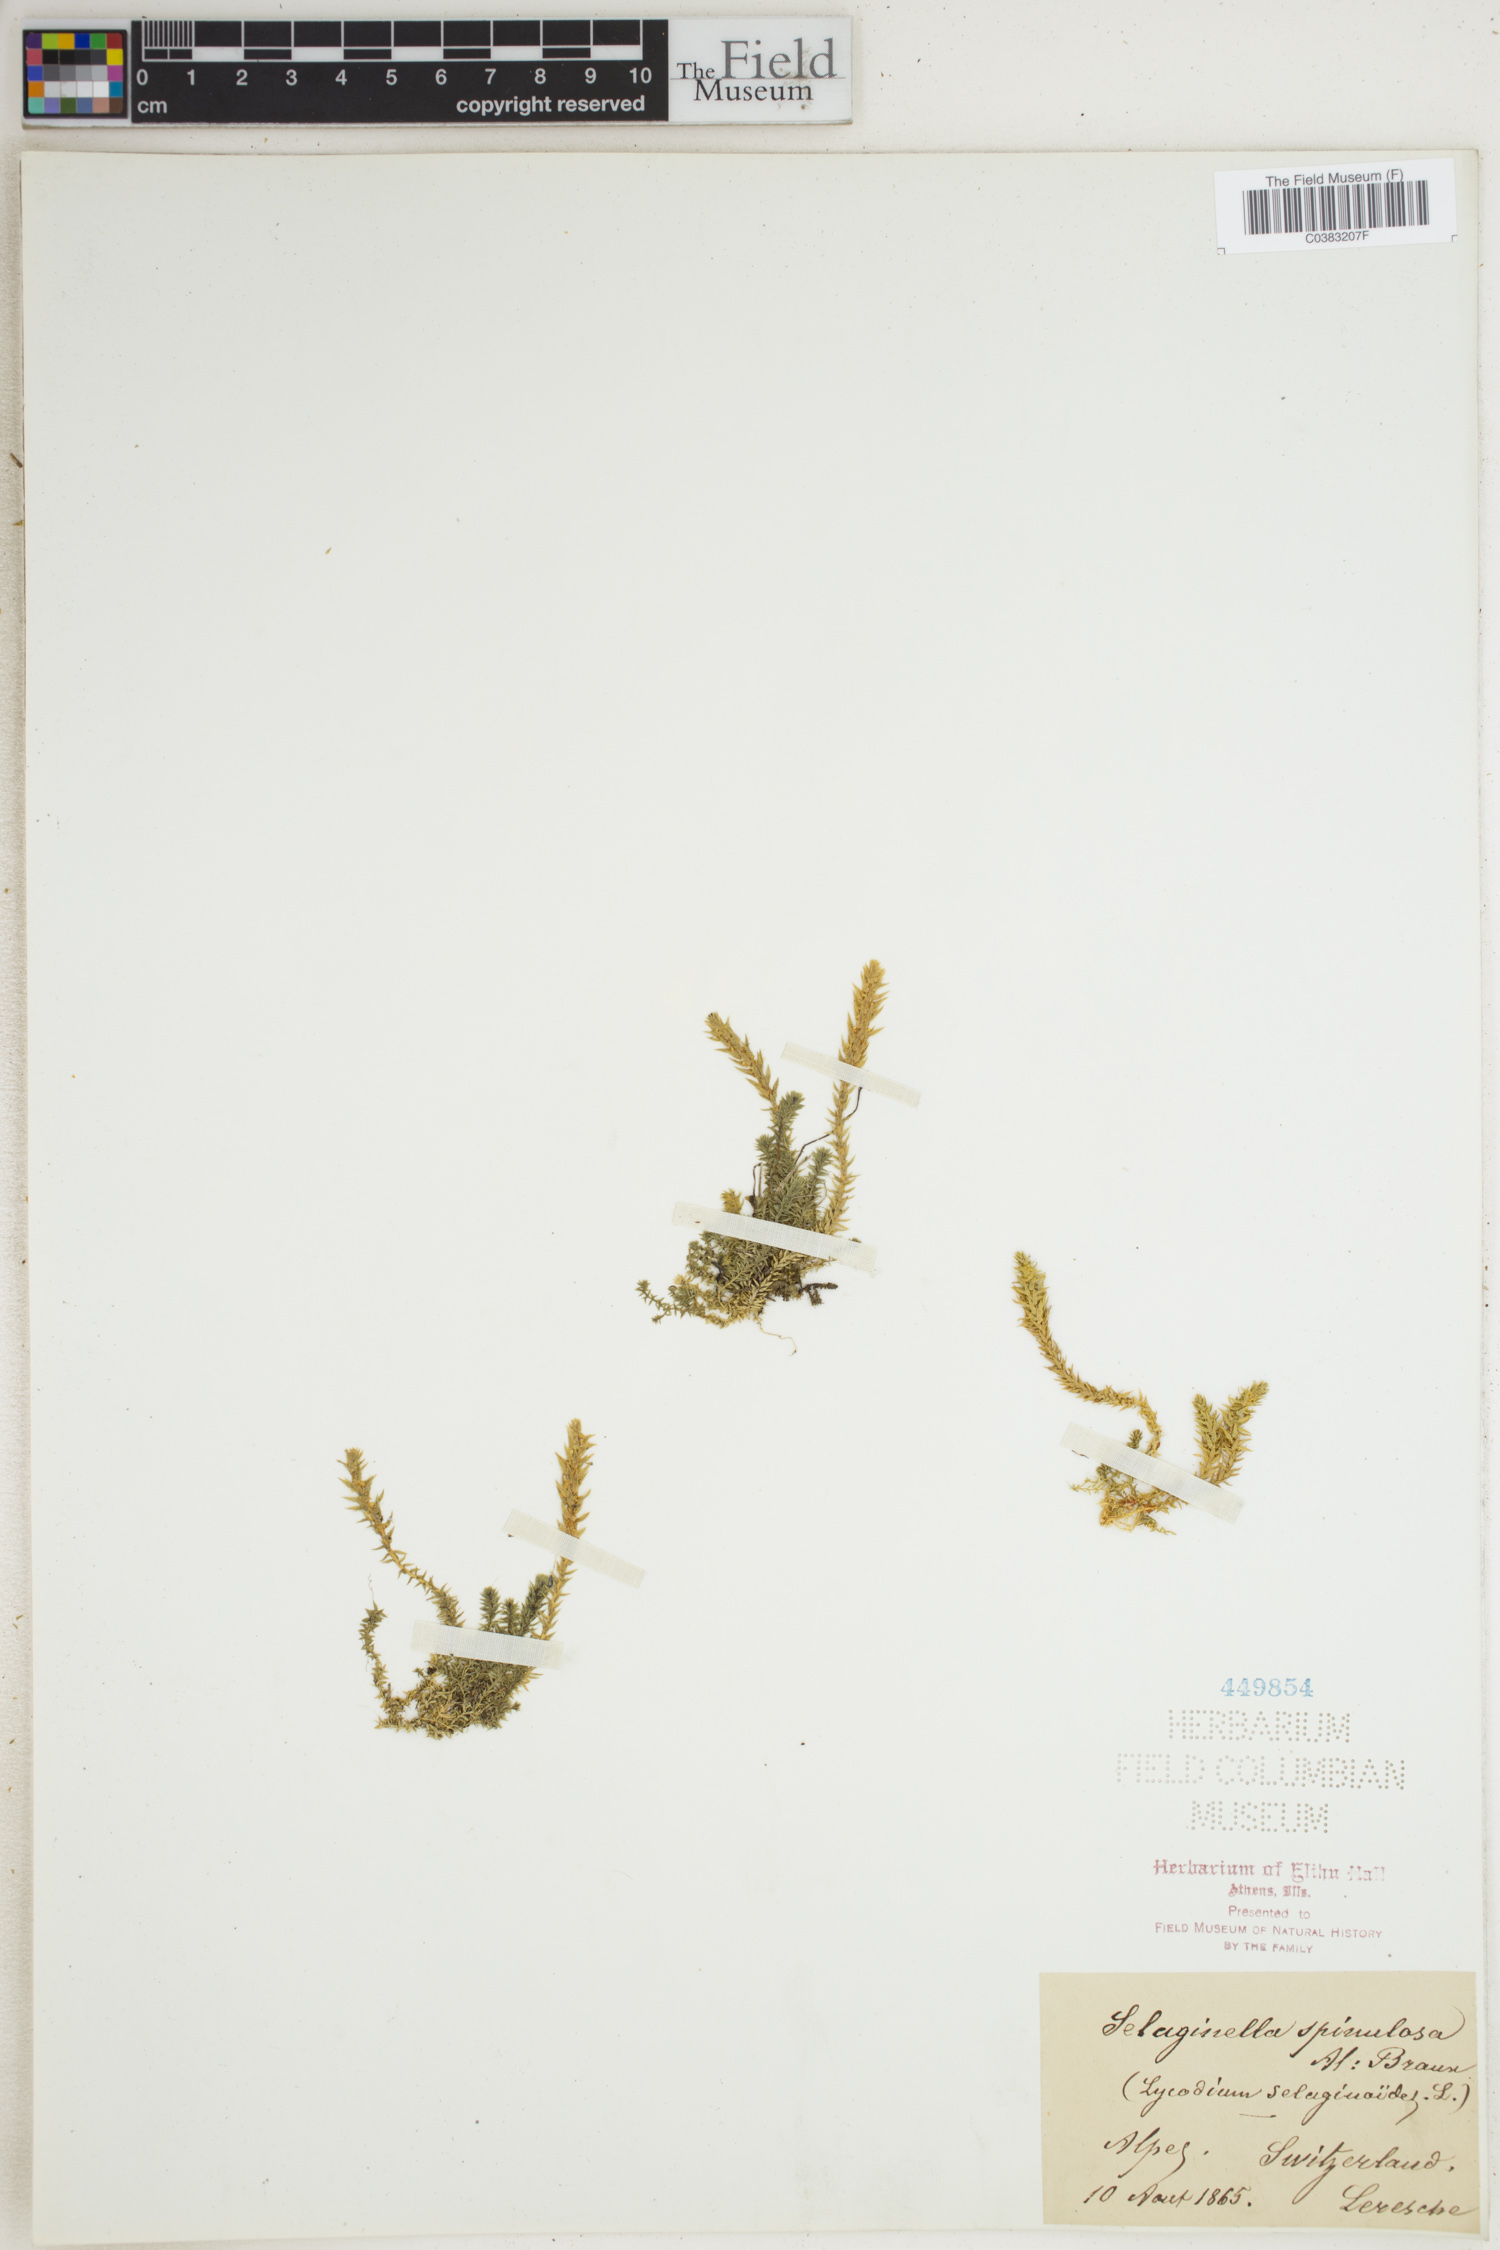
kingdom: Plantae
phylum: Tracheophyta
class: Lycopodiopsida
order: Selaginellales
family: Selaginellaceae
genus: Selaginella
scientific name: Selaginella selaginoides
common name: Prickly mountain-moss
